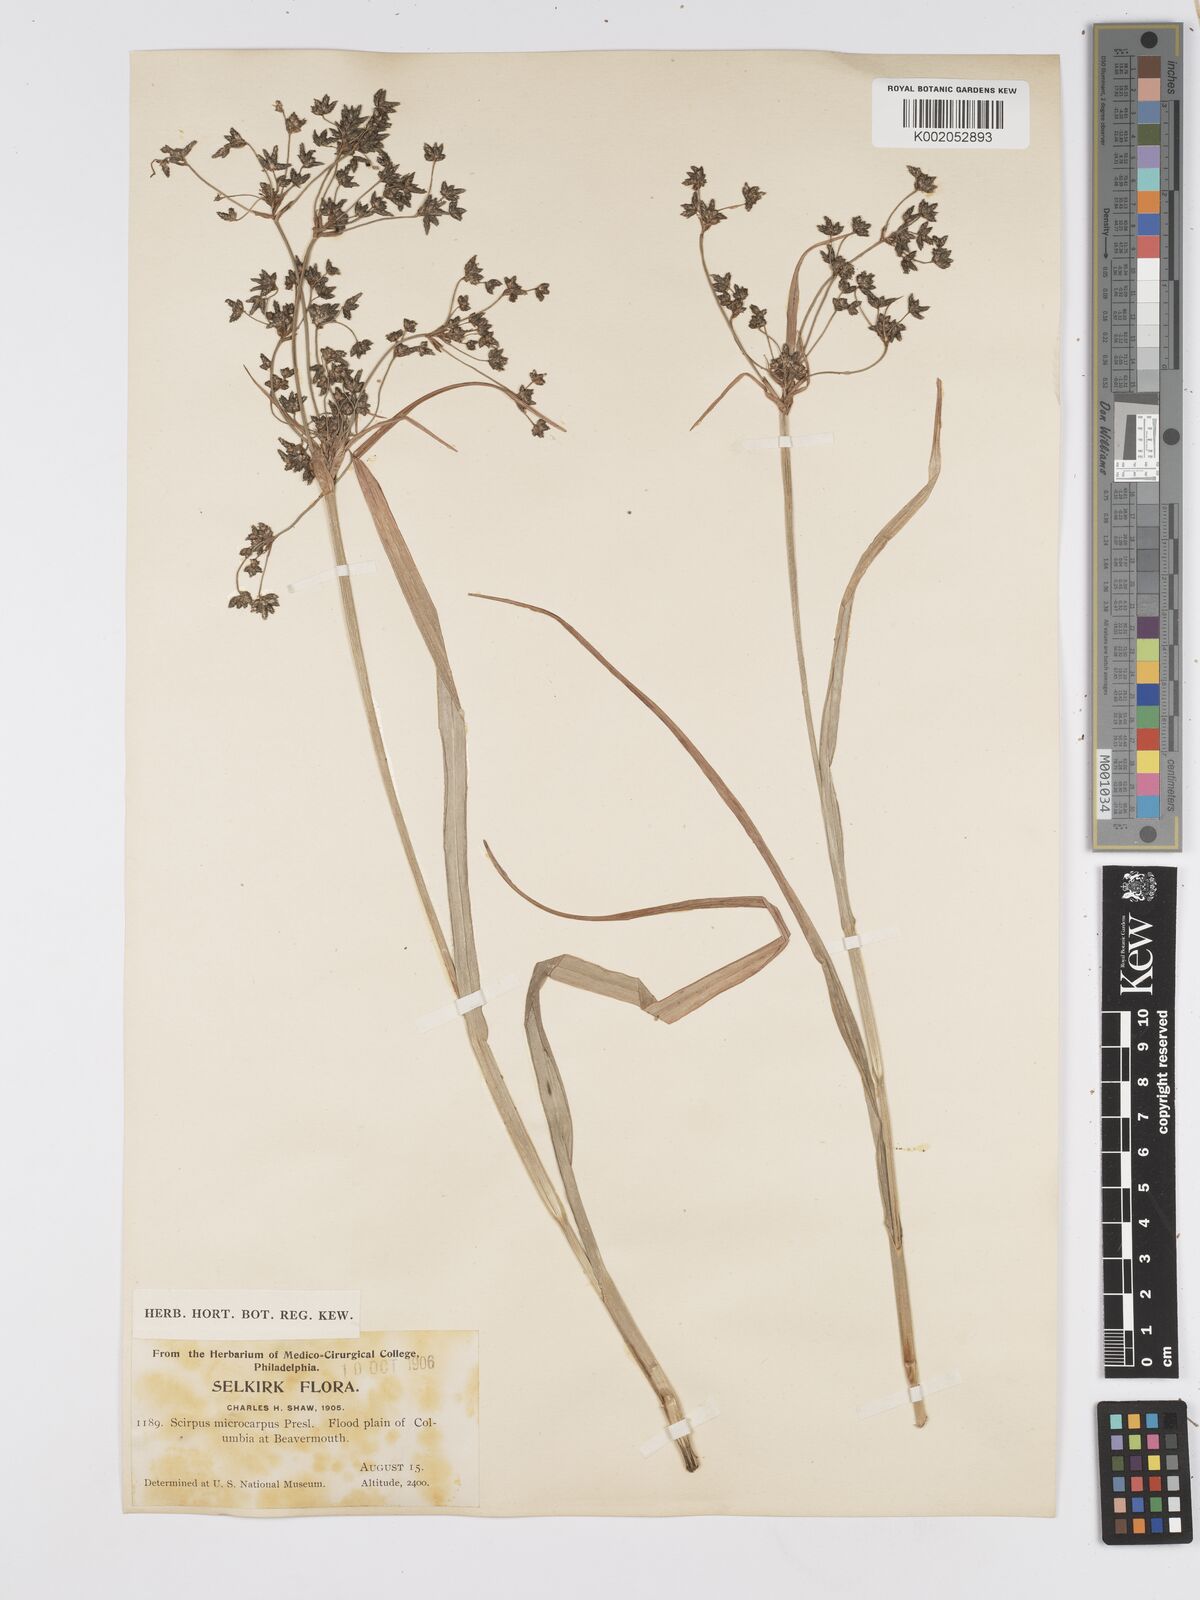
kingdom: Plantae
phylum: Tracheophyta
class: Liliopsida
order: Poales
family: Cyperaceae
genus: Scirpus
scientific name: Scirpus sylvaticus
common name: Wood club-rush
